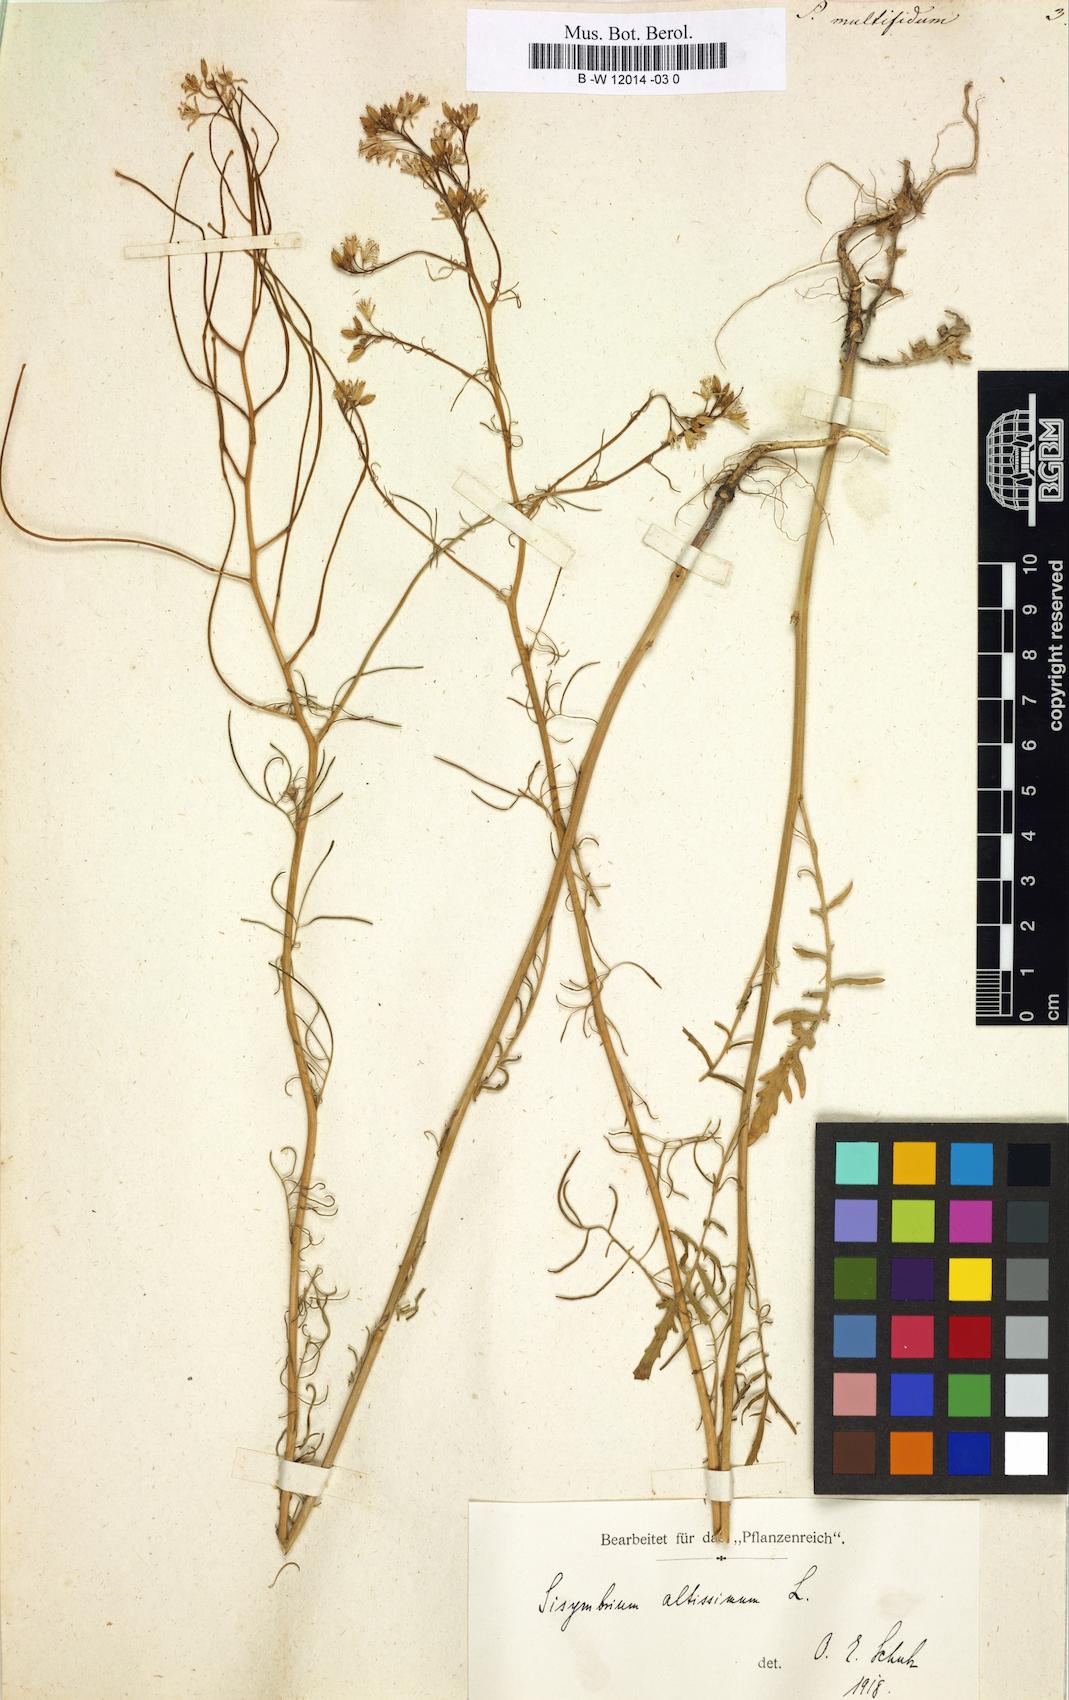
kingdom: Plantae
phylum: Tracheophyta
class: Magnoliopsida
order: Brassicales
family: Brassicaceae
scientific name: Brassicaceae
